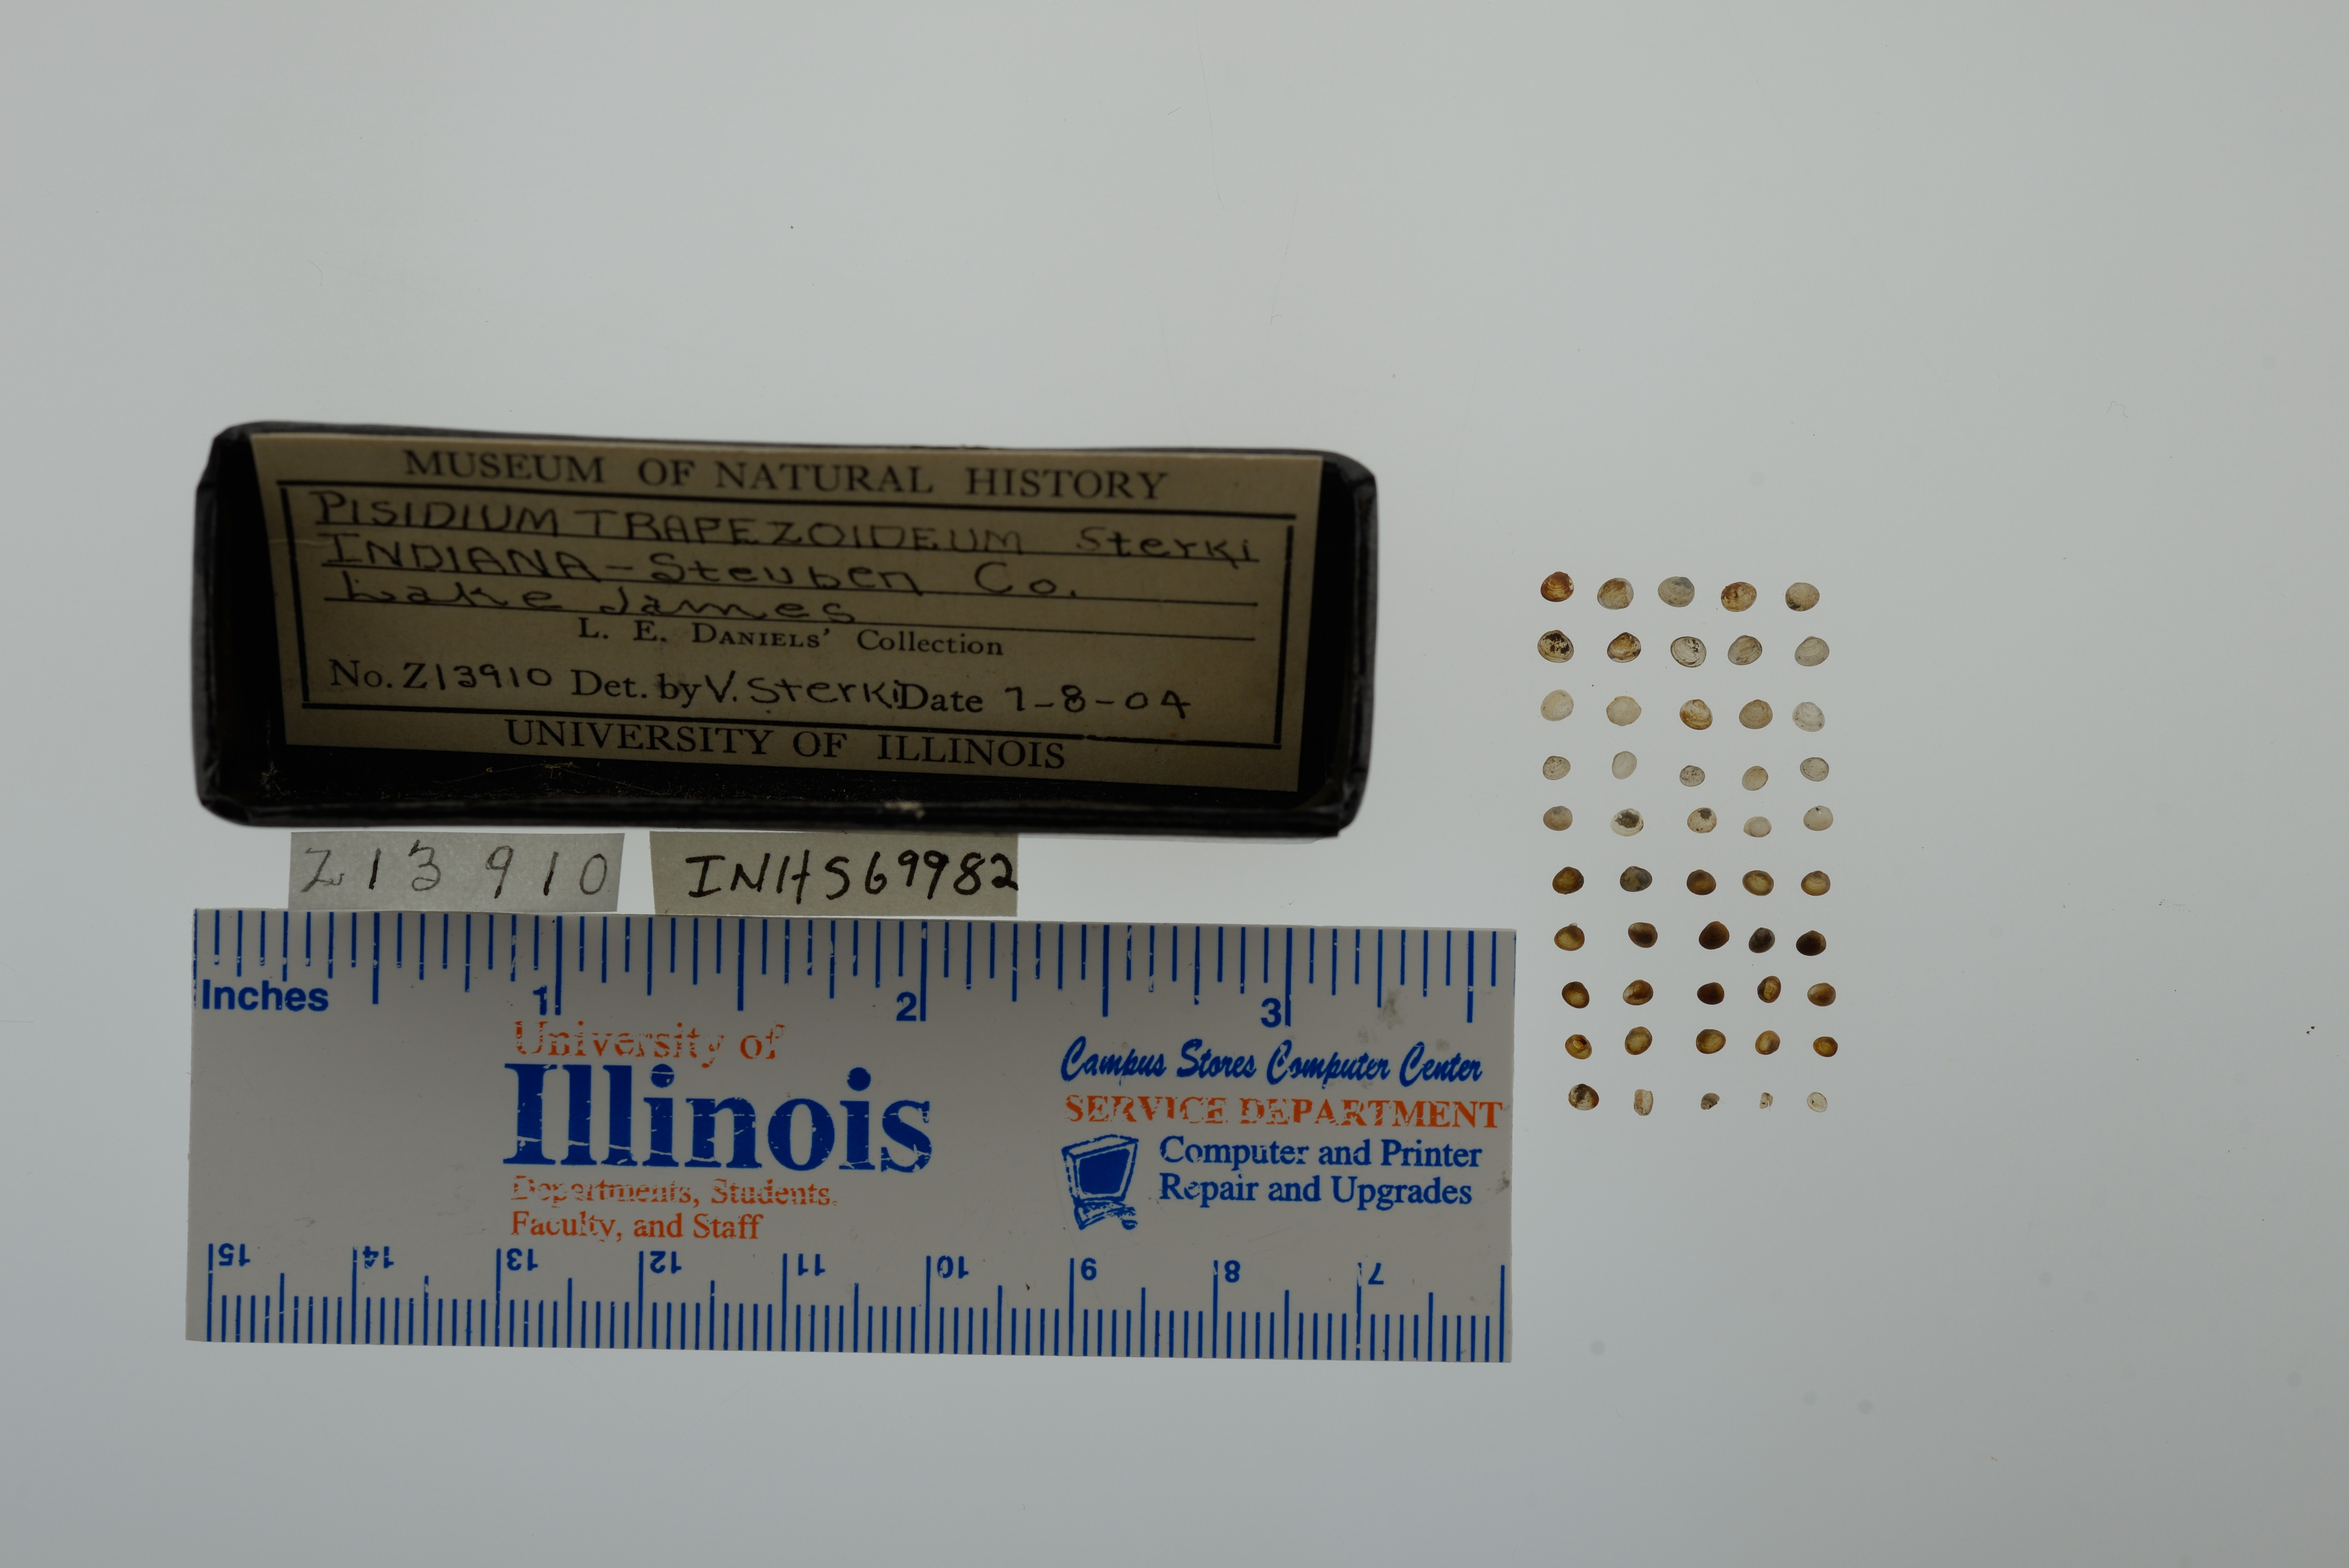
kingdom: Animalia
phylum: Mollusca
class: Bivalvia
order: Sphaeriida
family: Sphaeriidae
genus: Euglesa
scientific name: Euglesa casertana
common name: Caserta pea mussel
